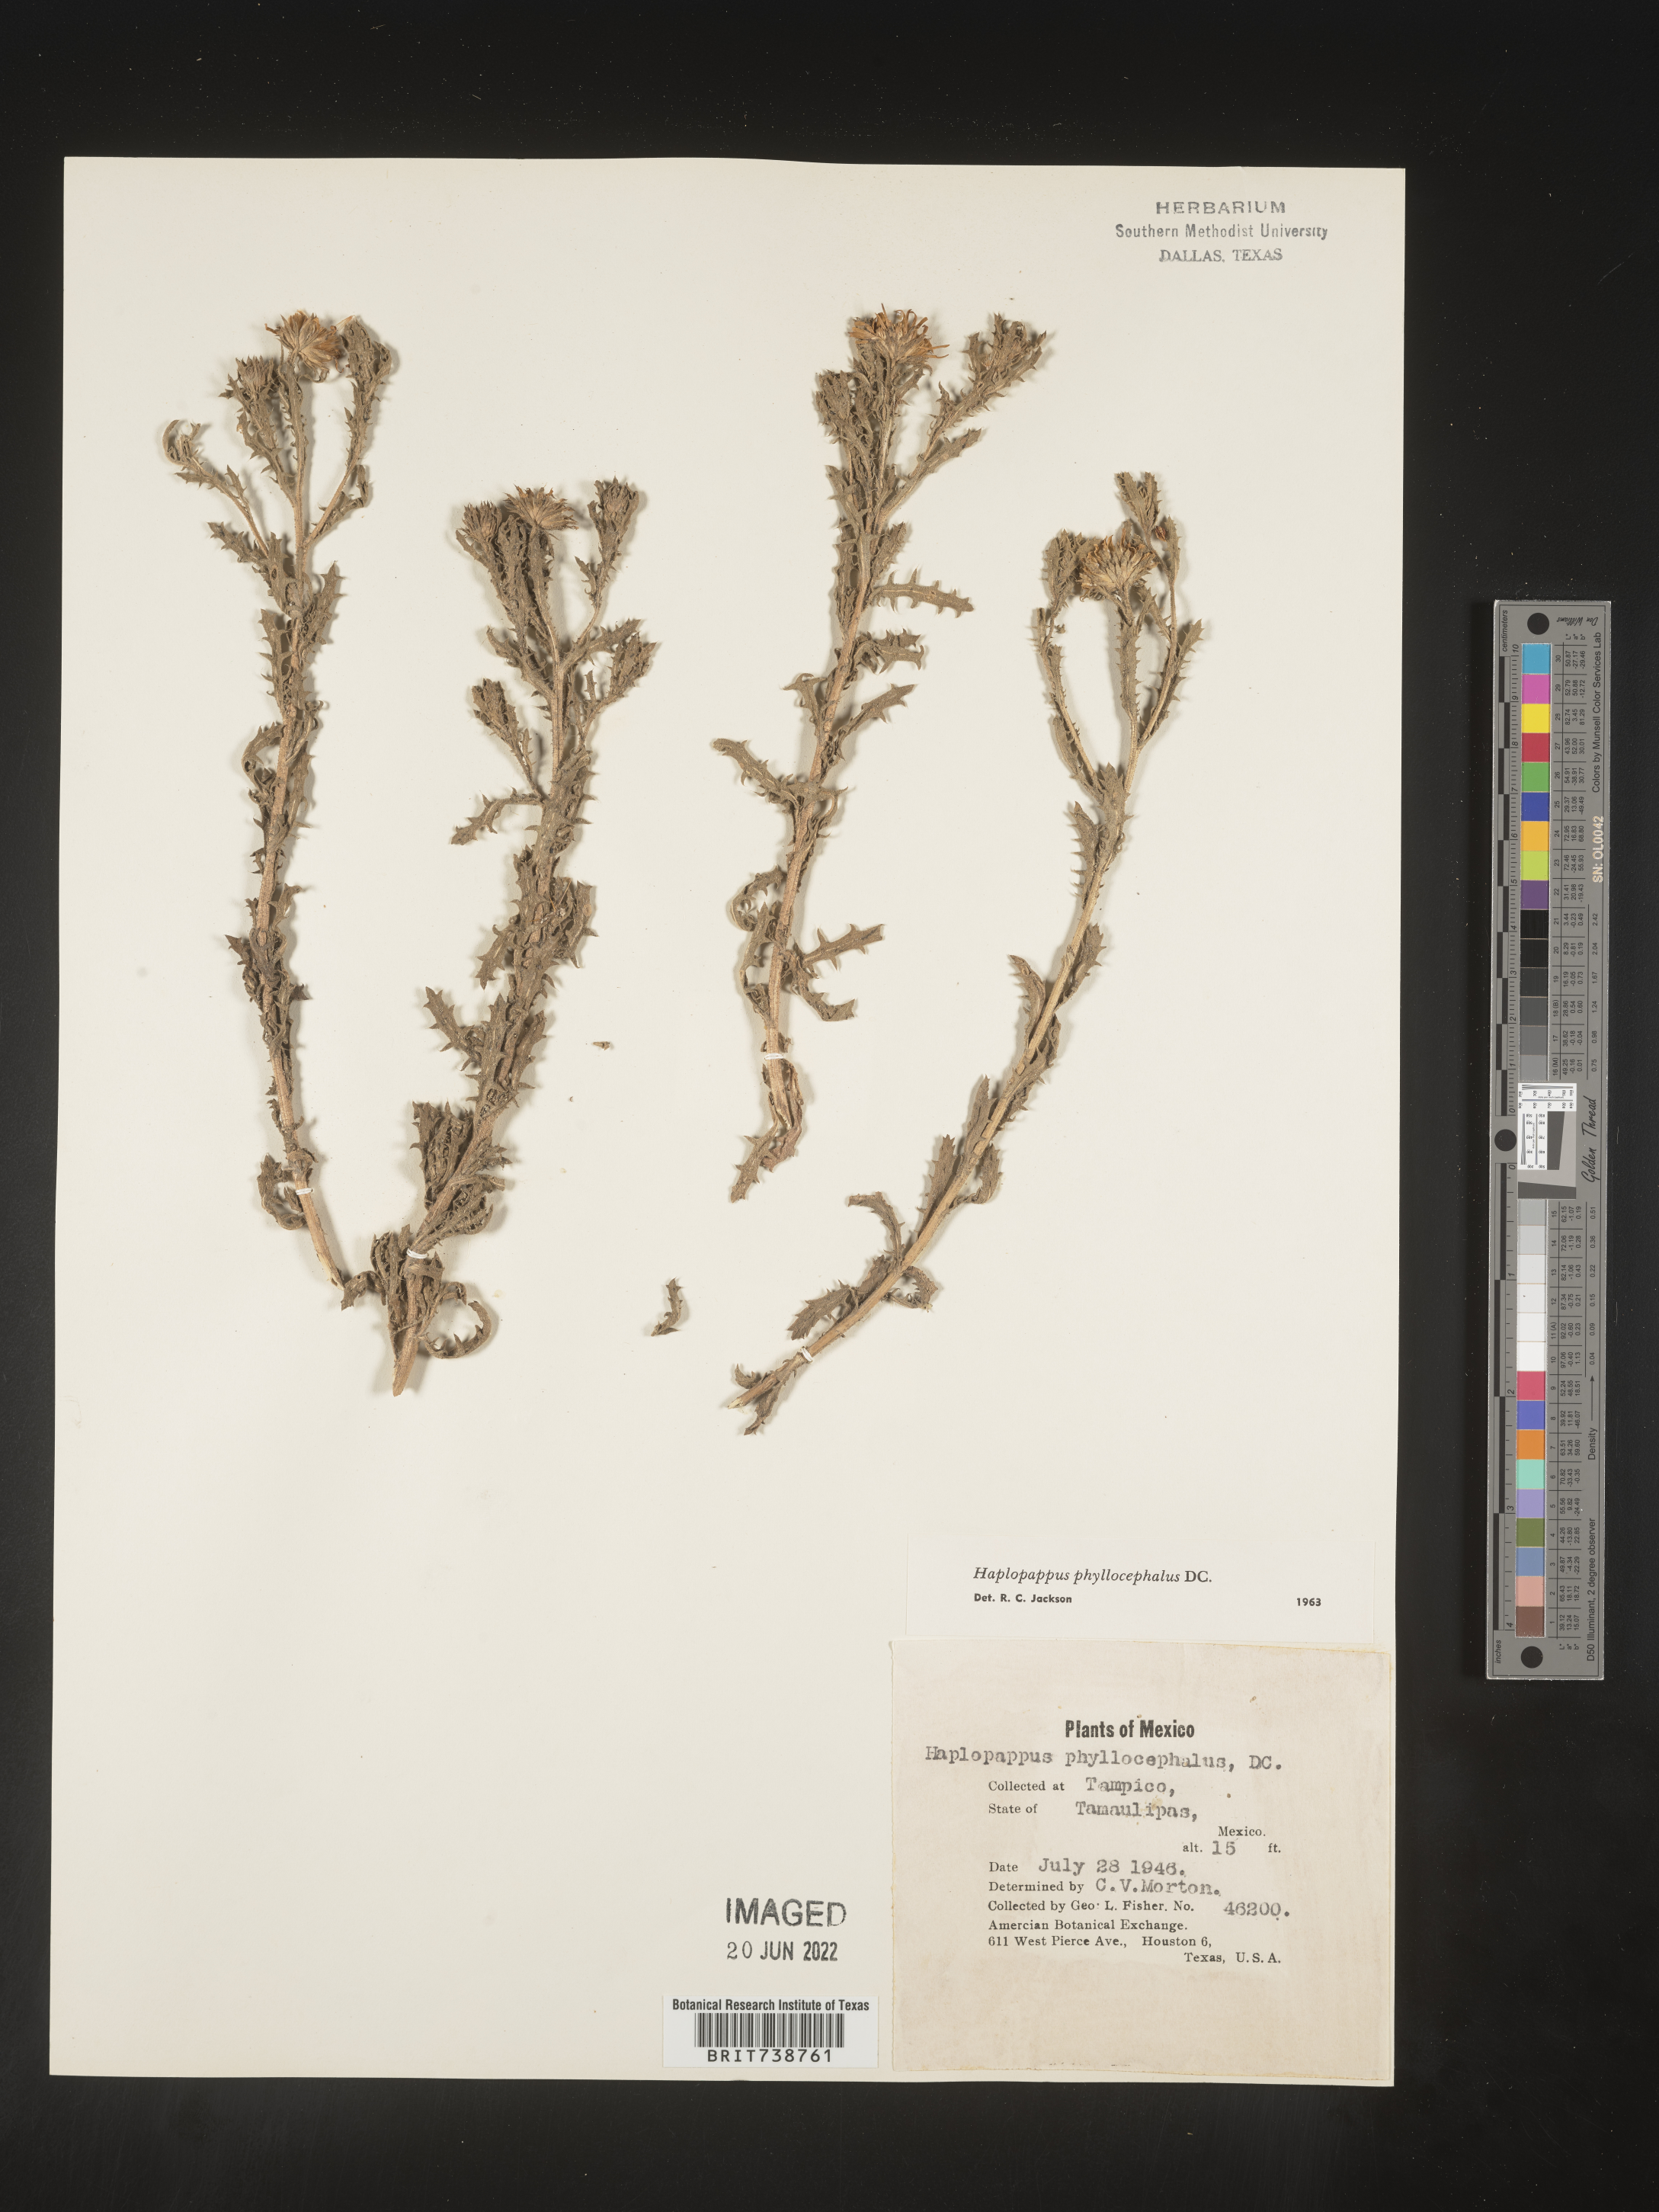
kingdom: Plantae
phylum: Tracheophyta
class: Magnoliopsida
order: Asterales
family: Asteraceae
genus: Rayjacksonia
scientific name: Rayjacksonia
